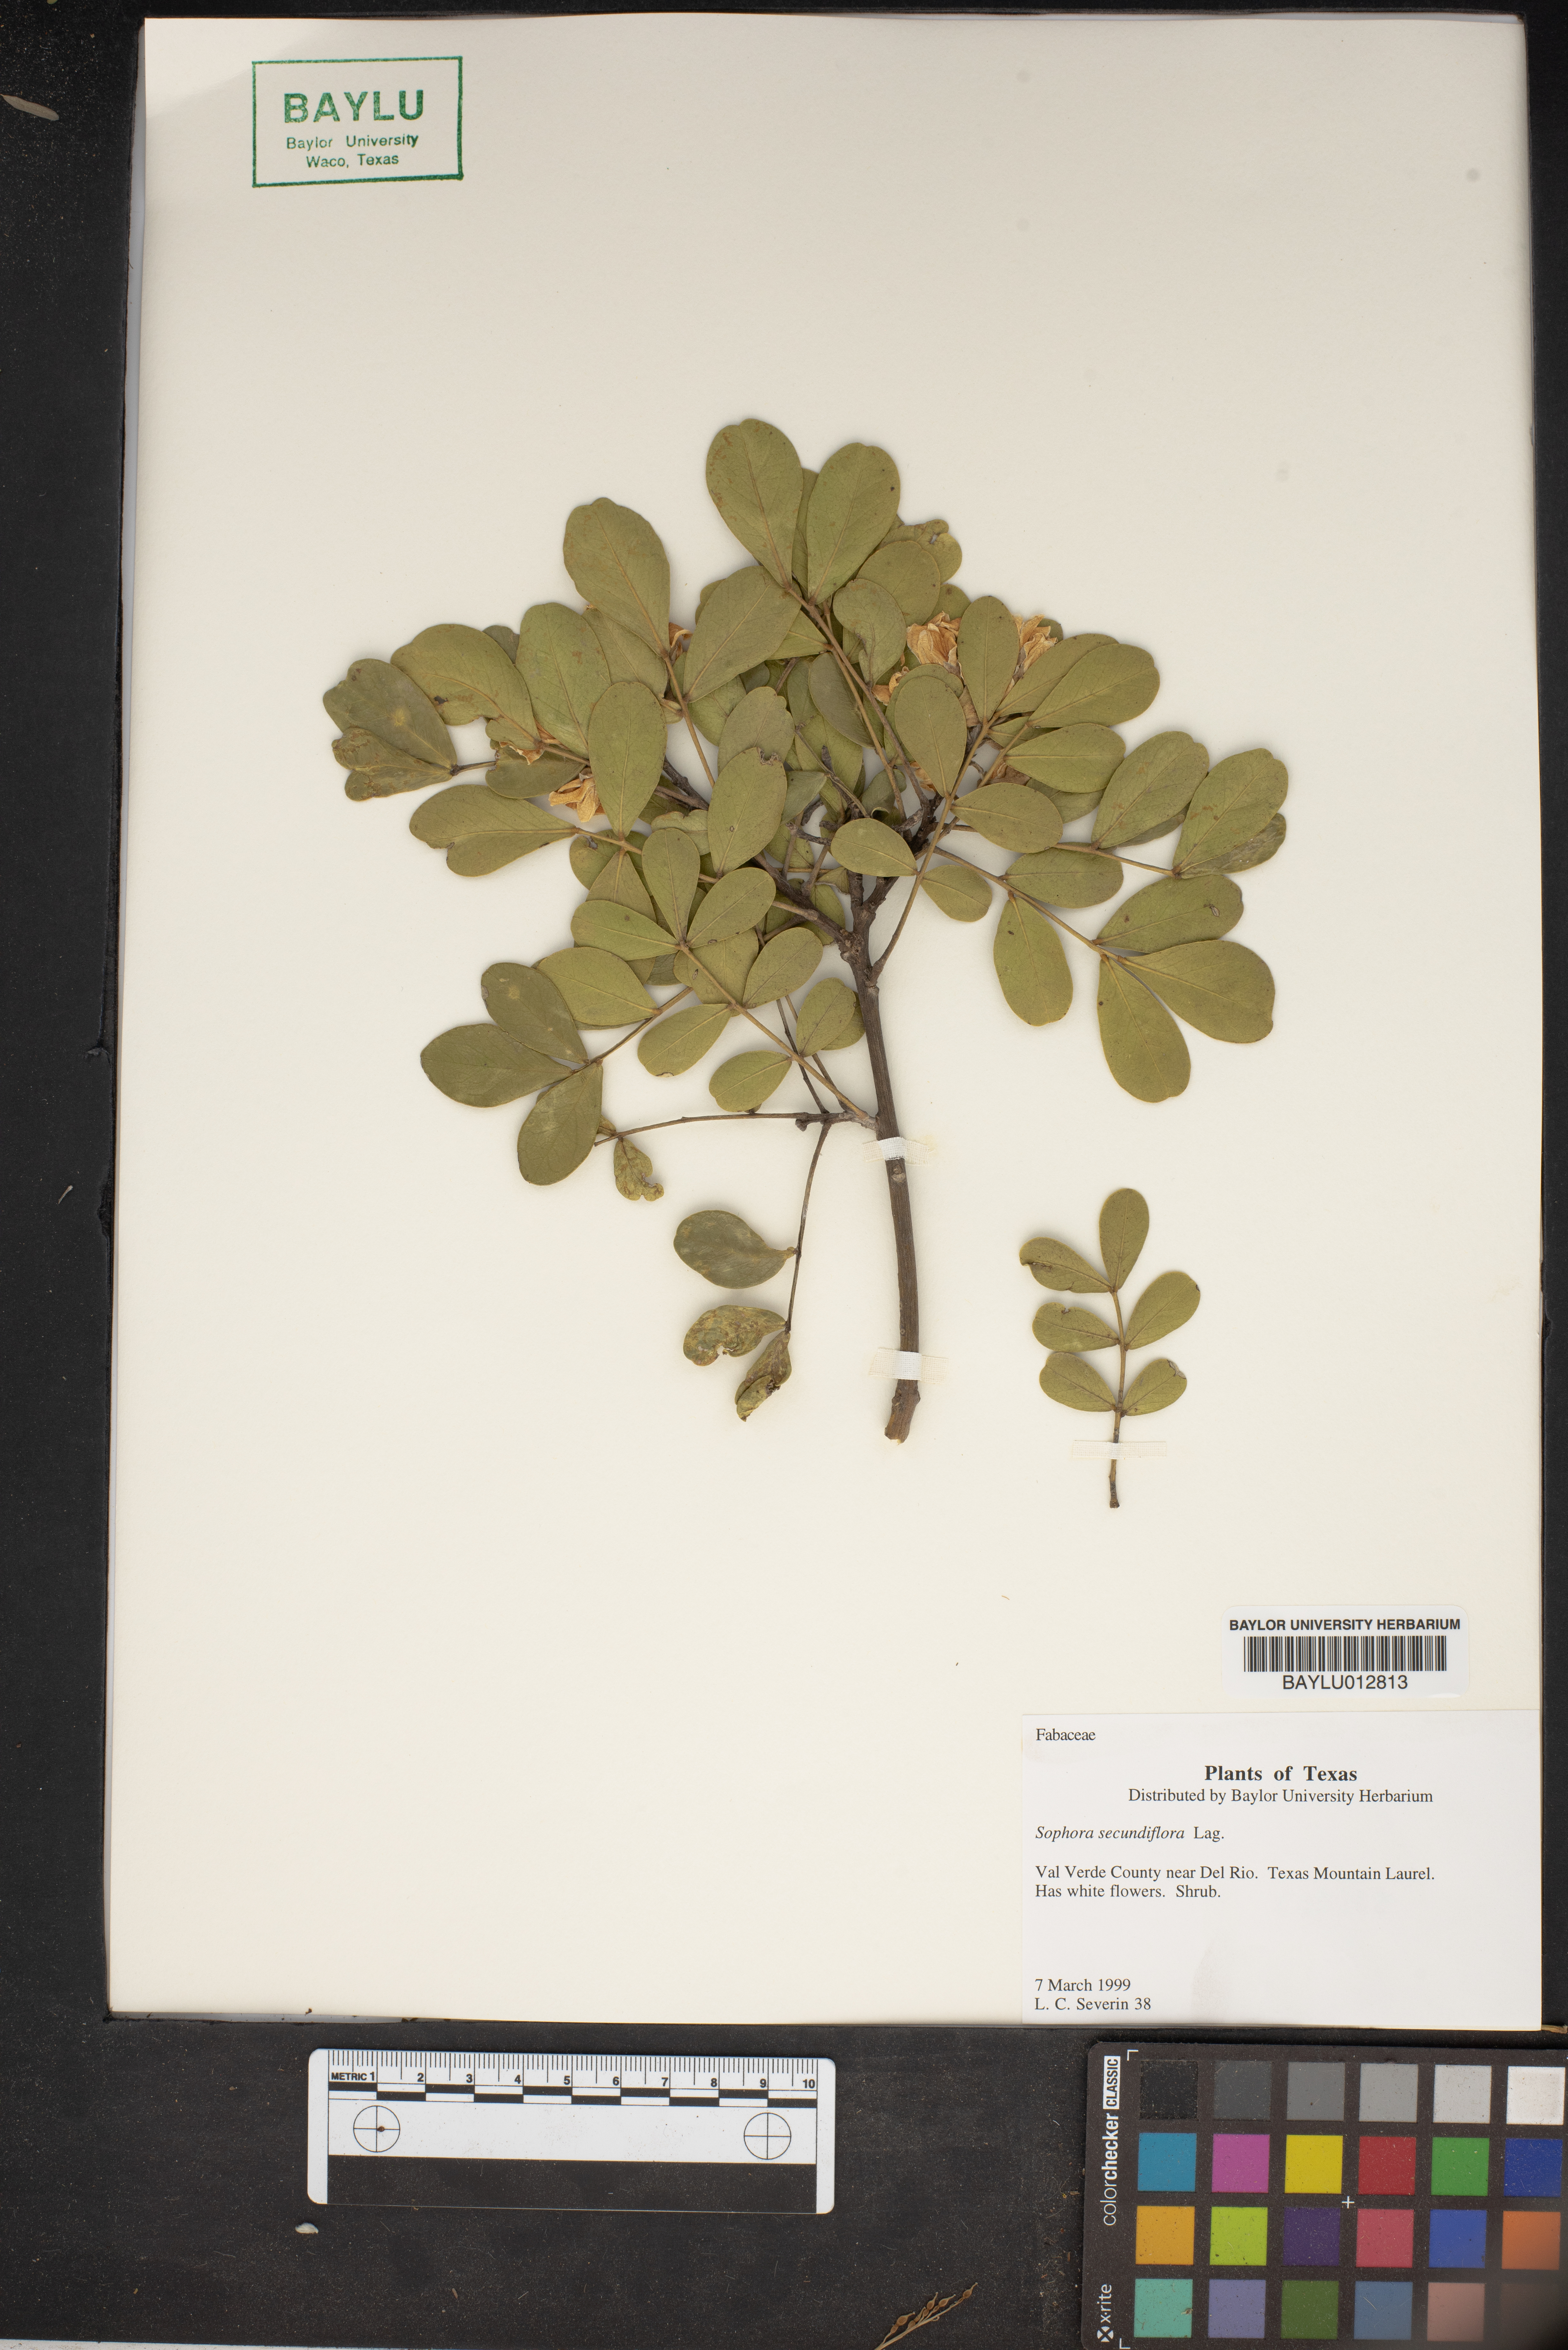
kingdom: Plantae
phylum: Tracheophyta
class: Magnoliopsida
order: Fabales
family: Fabaceae
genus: Dermatophyllum
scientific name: Dermatophyllum secundiflorum
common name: Texas-mountain-laurel
